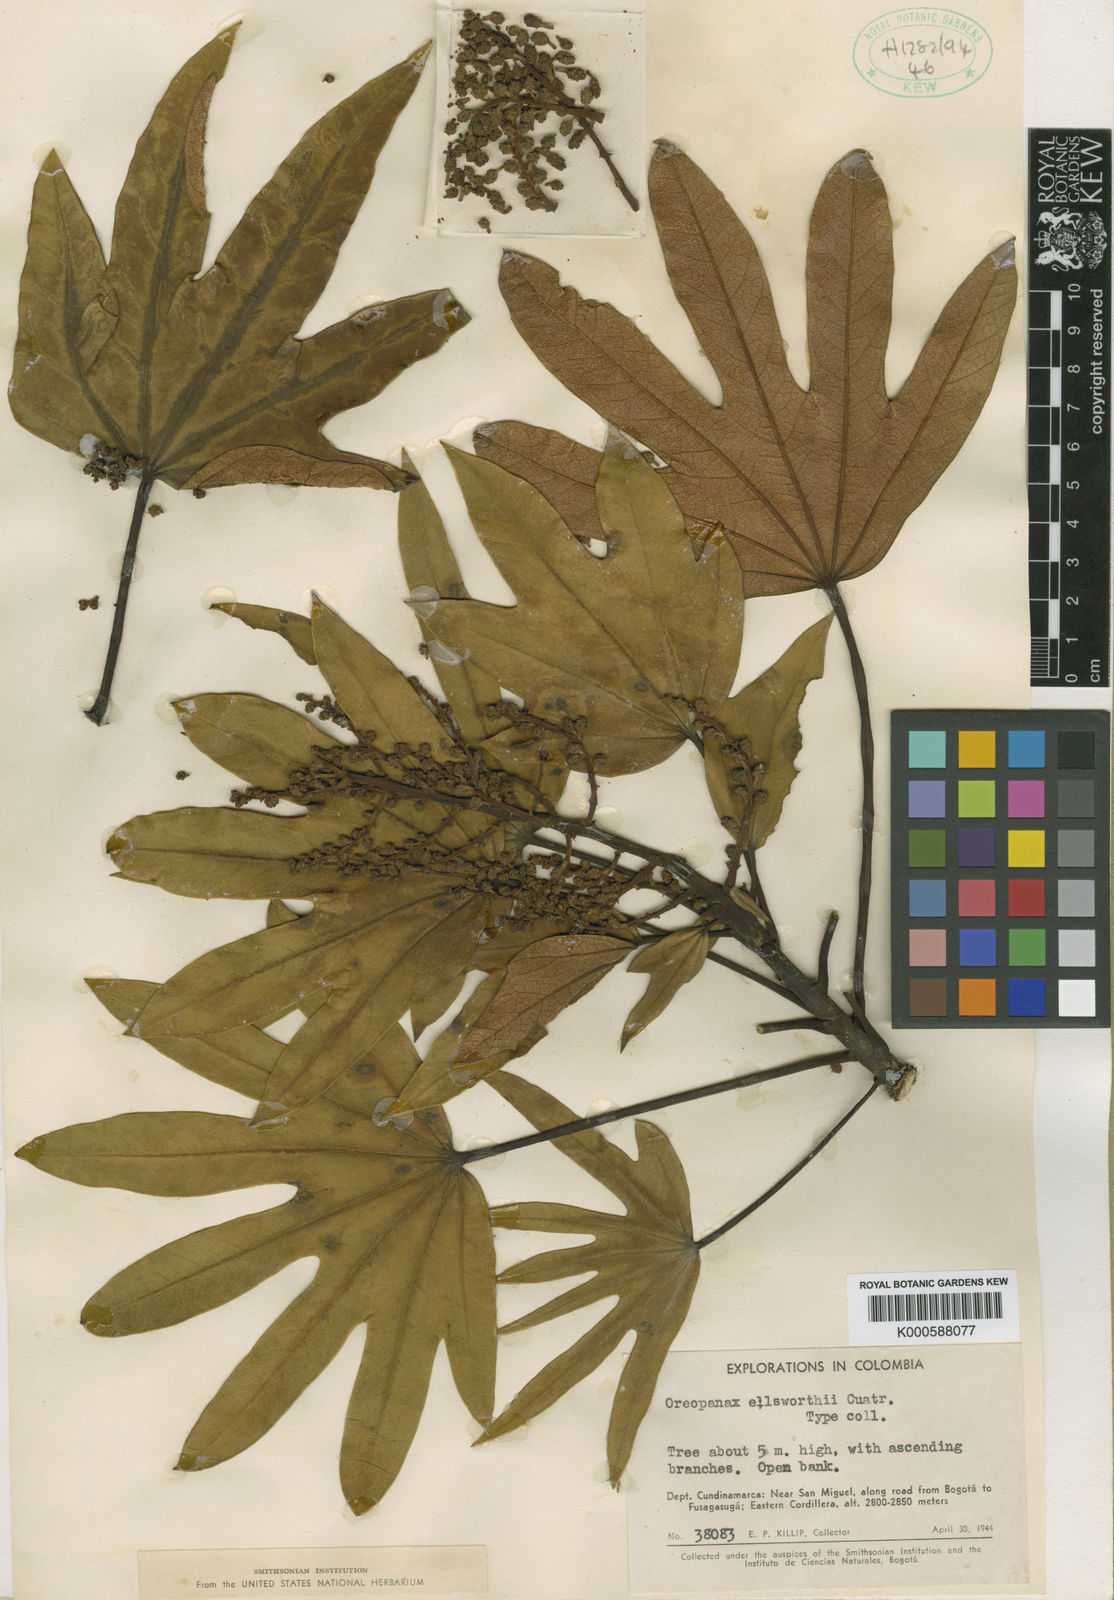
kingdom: Plantae
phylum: Tracheophyta
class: Magnoliopsida
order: Apiales
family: Araliaceae
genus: Oreopanax
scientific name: Oreopanax ellsworthii
